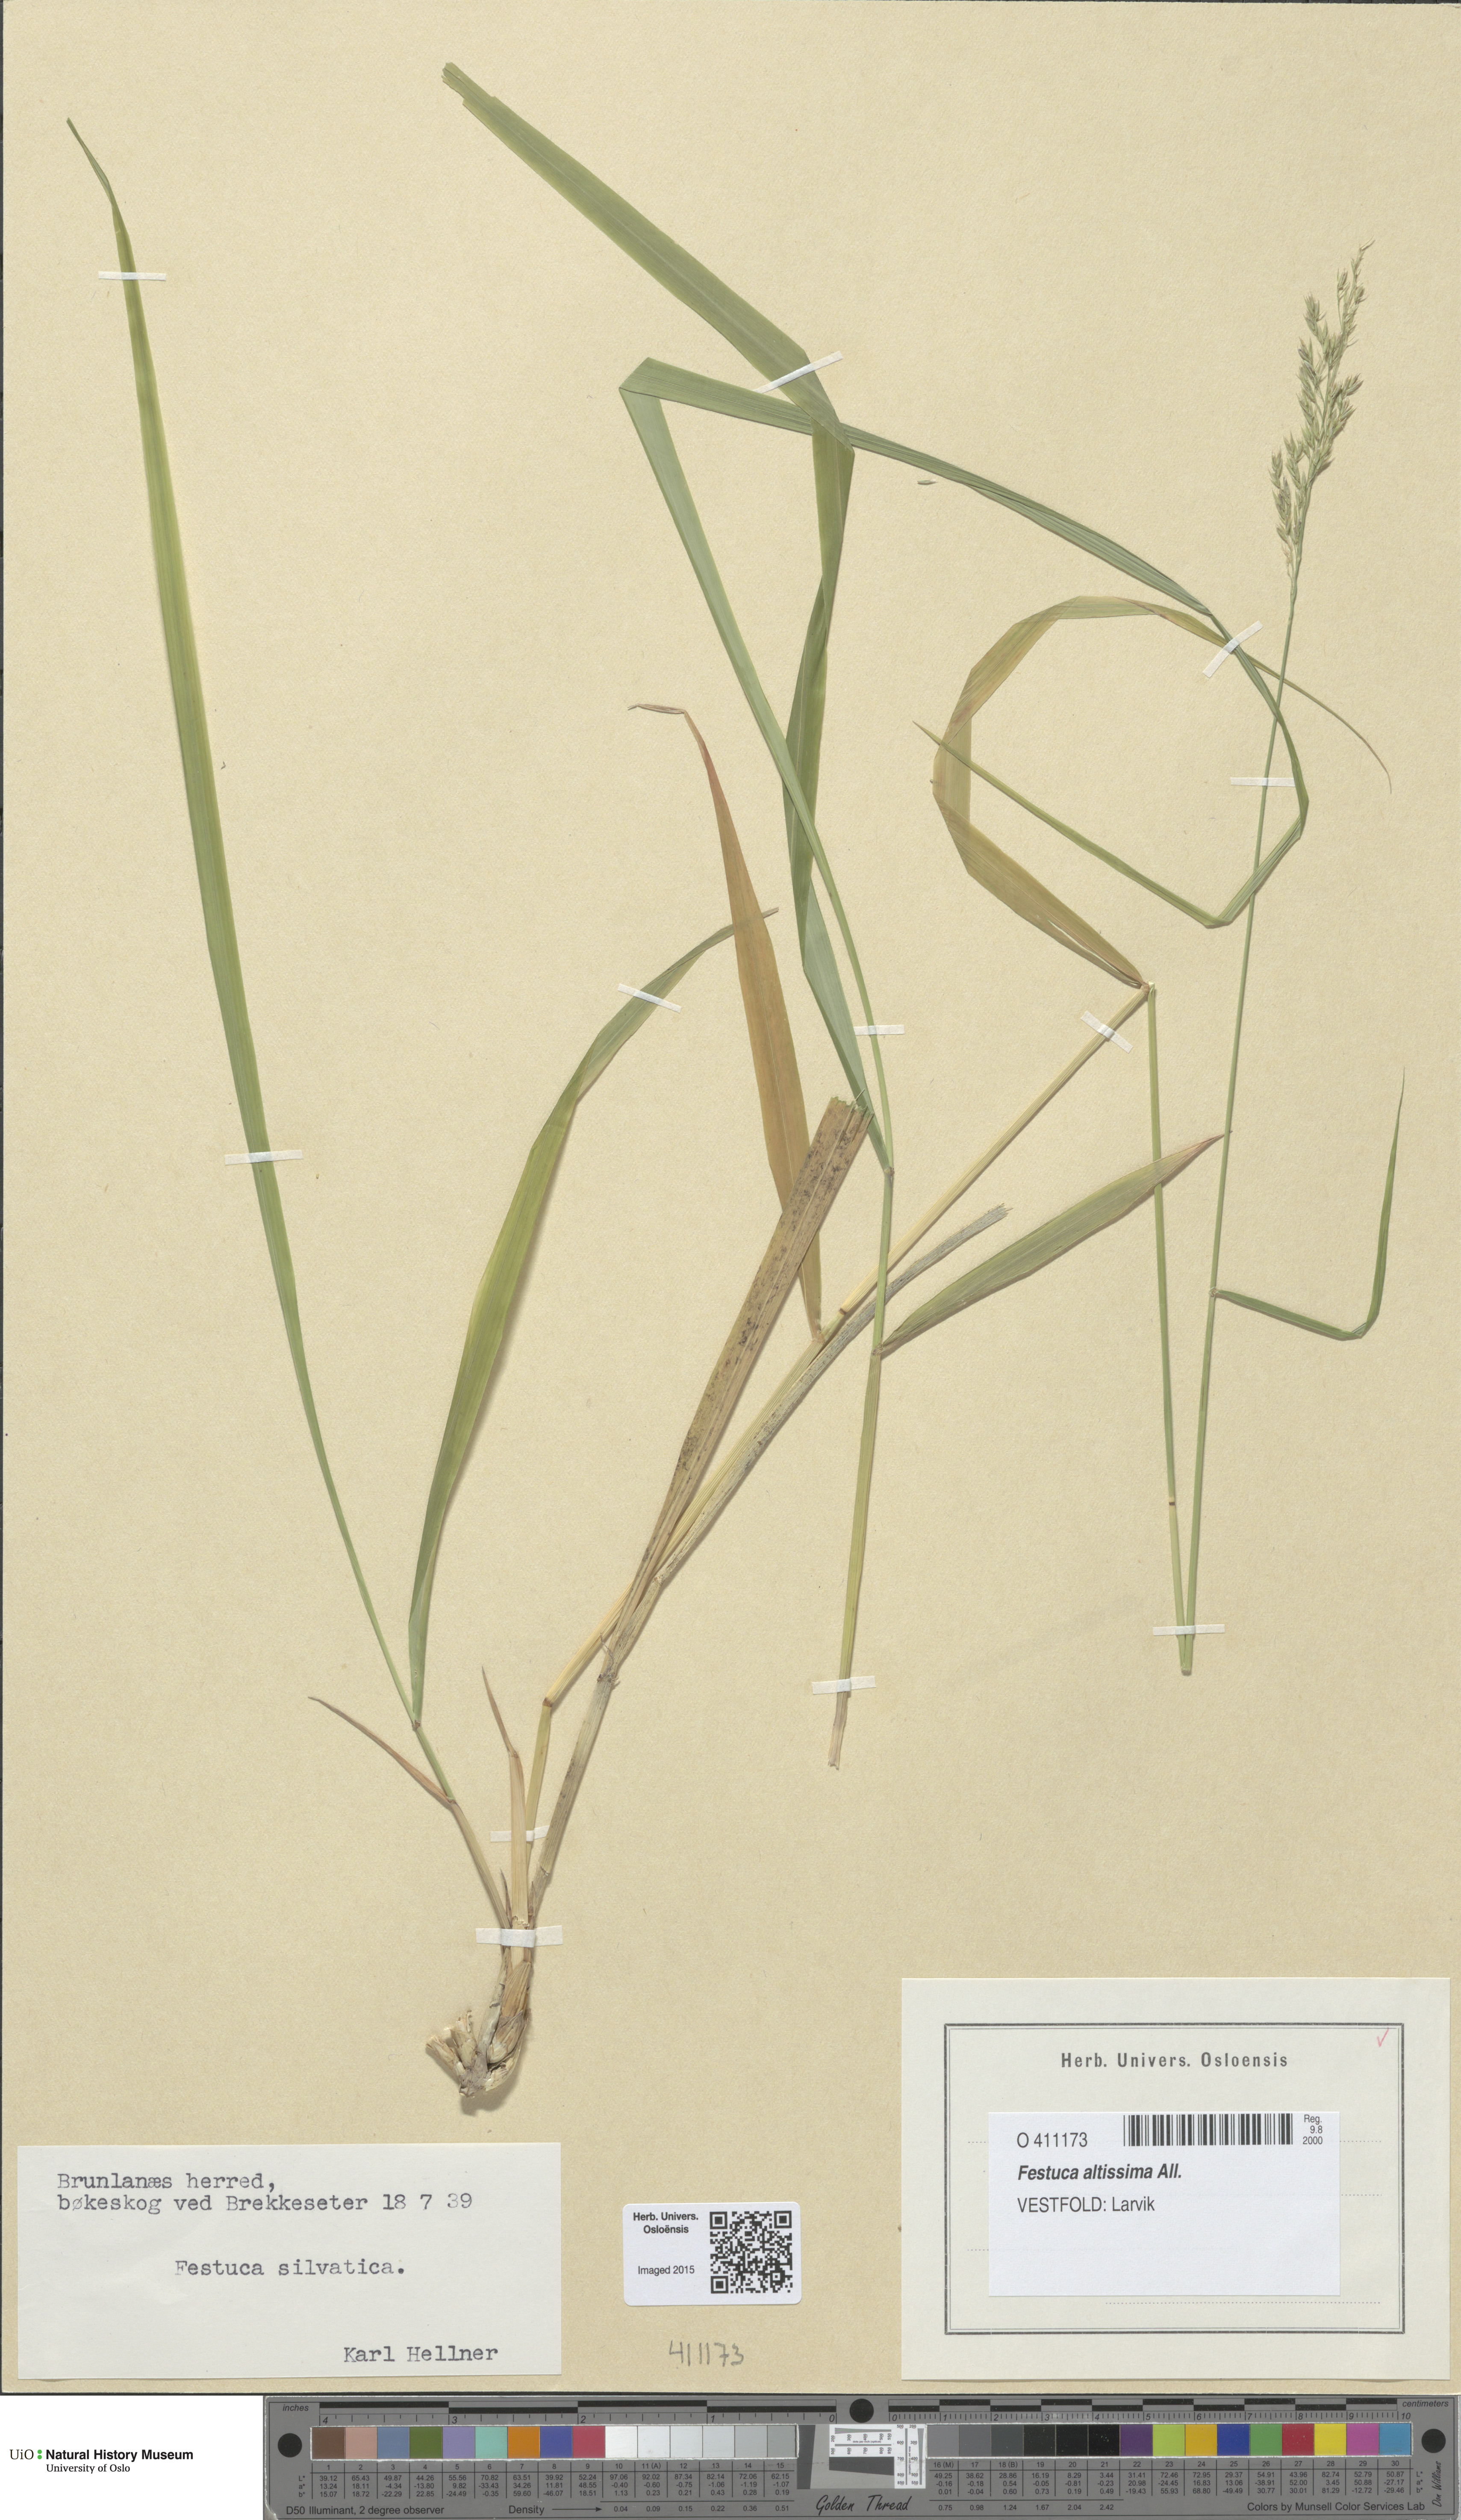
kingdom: Plantae
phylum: Tracheophyta
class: Liliopsida
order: Poales
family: Poaceae
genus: Festuca
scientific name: Festuca altissima
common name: Wood fescue
